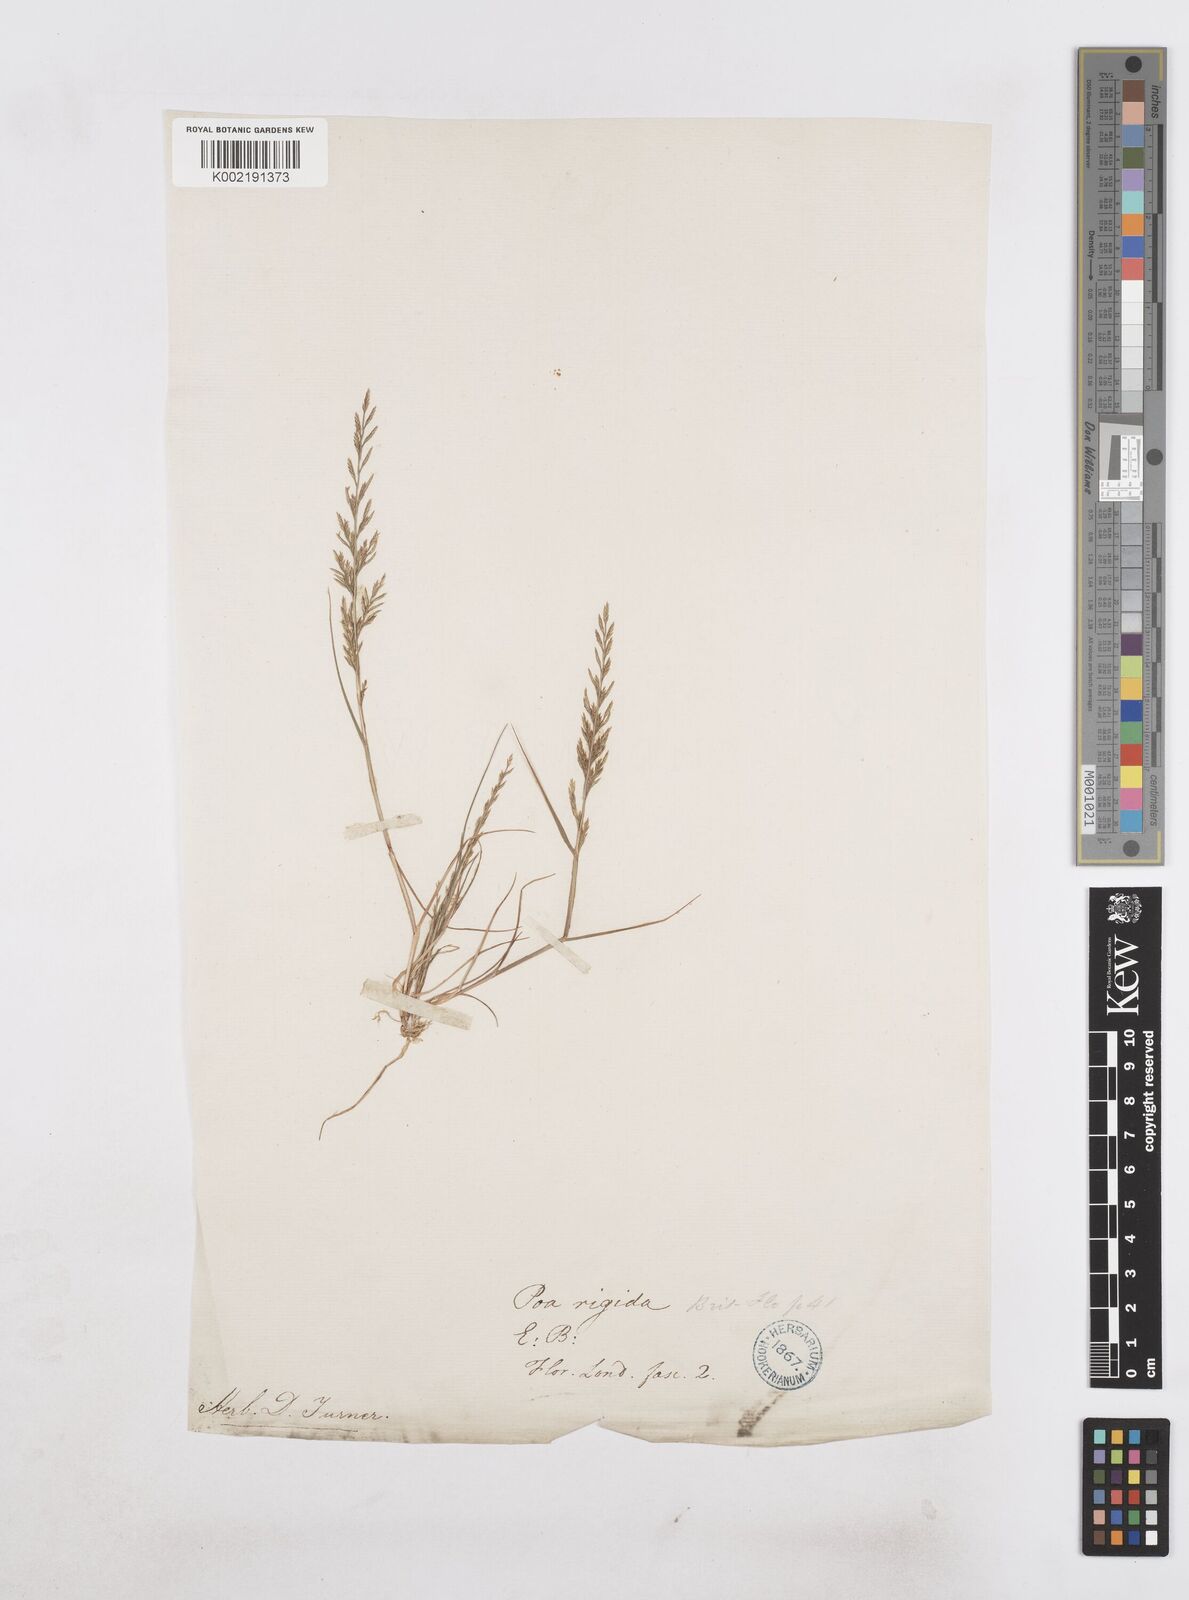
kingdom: Plantae
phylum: Tracheophyta
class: Liliopsida
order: Poales
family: Poaceae
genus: Catapodium
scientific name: Catapodium rigidum
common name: Fern-grass
